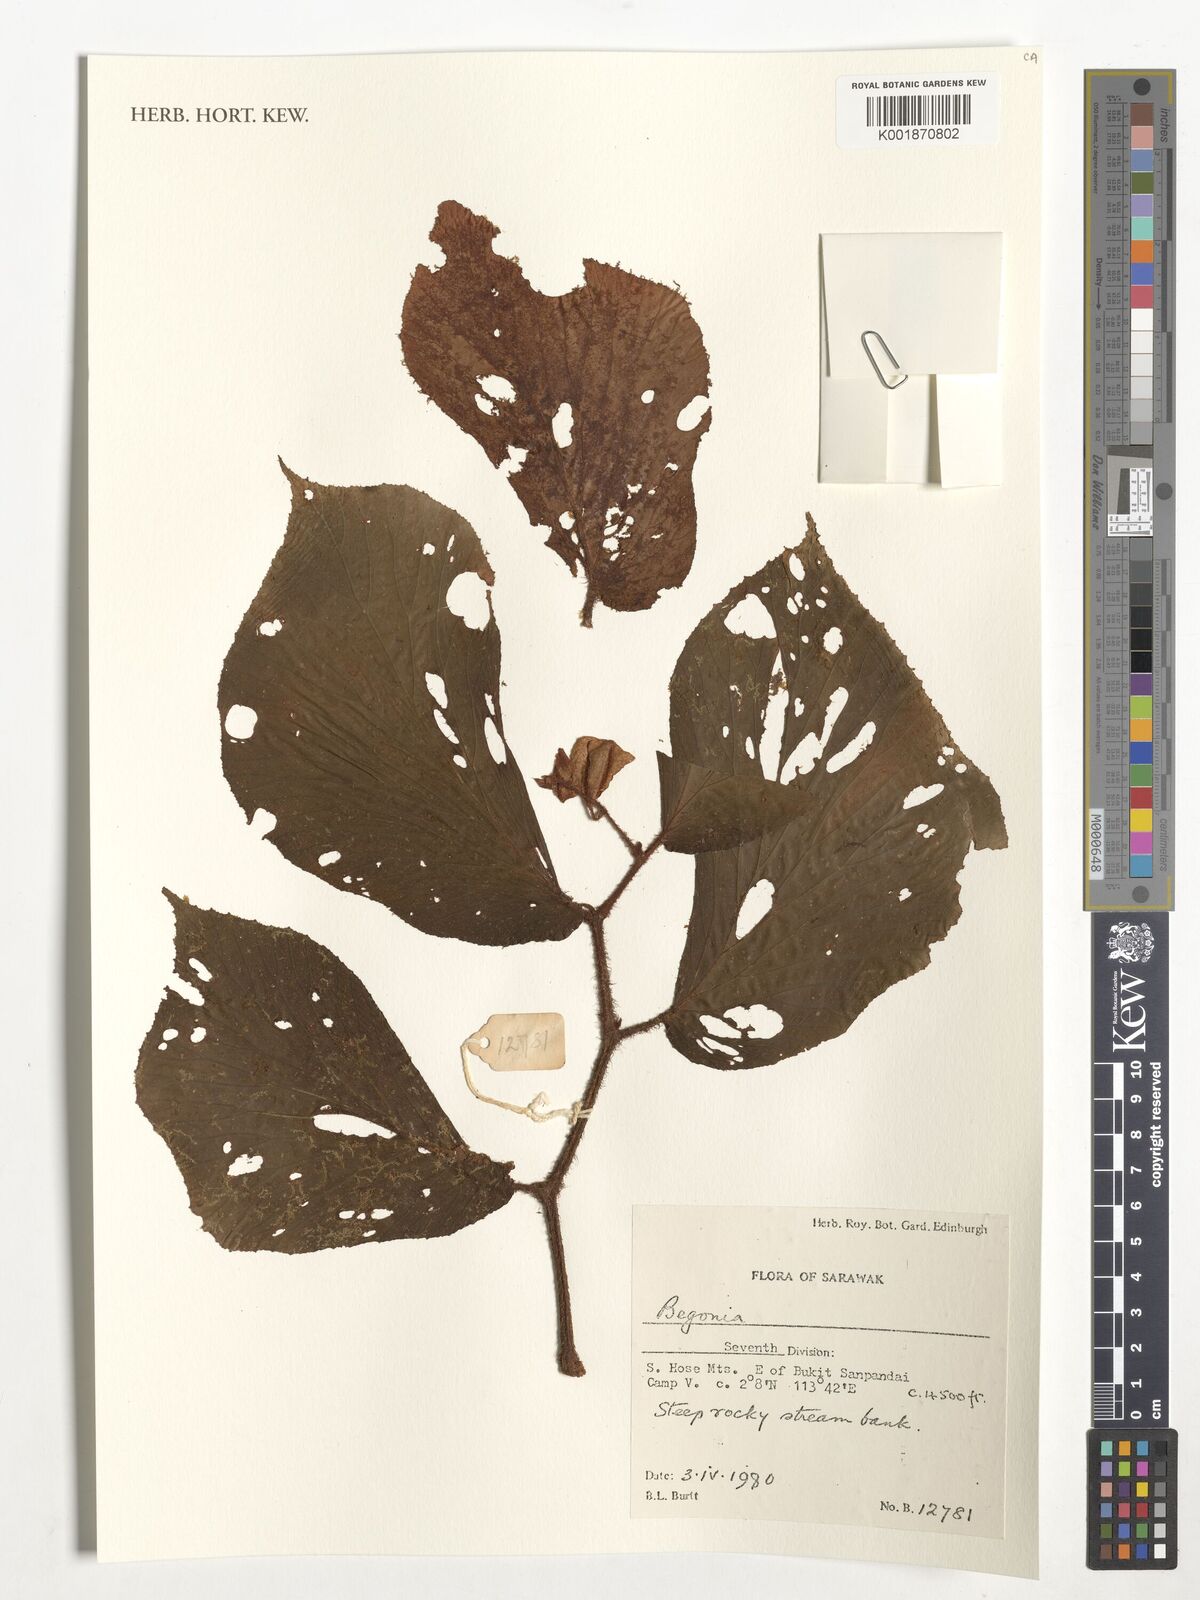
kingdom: Plantae
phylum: Tracheophyta
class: Magnoliopsida
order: Cucurbitales
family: Begoniaceae
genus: Begonia
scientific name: Begonia
